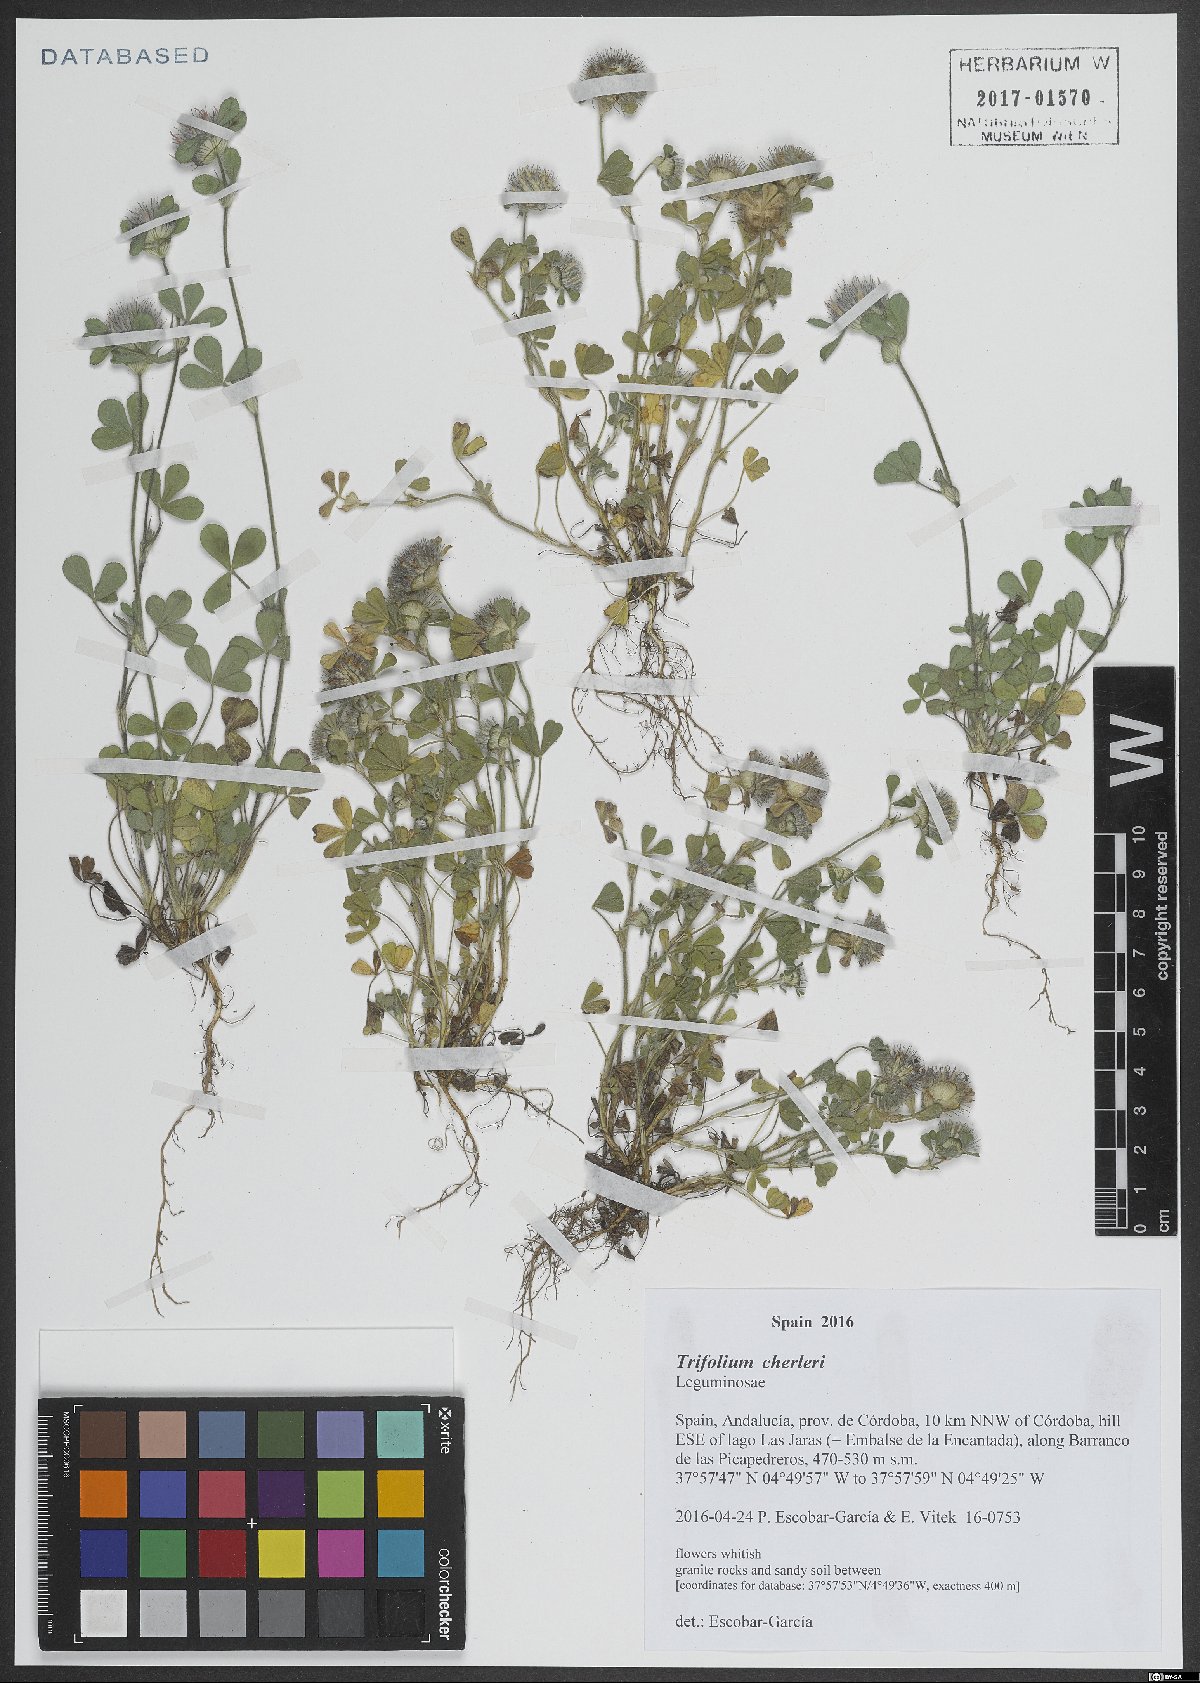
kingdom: Plantae
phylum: Tracheophyta
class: Magnoliopsida
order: Fabales
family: Fabaceae
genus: Trifolium
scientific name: Trifolium cherleri
